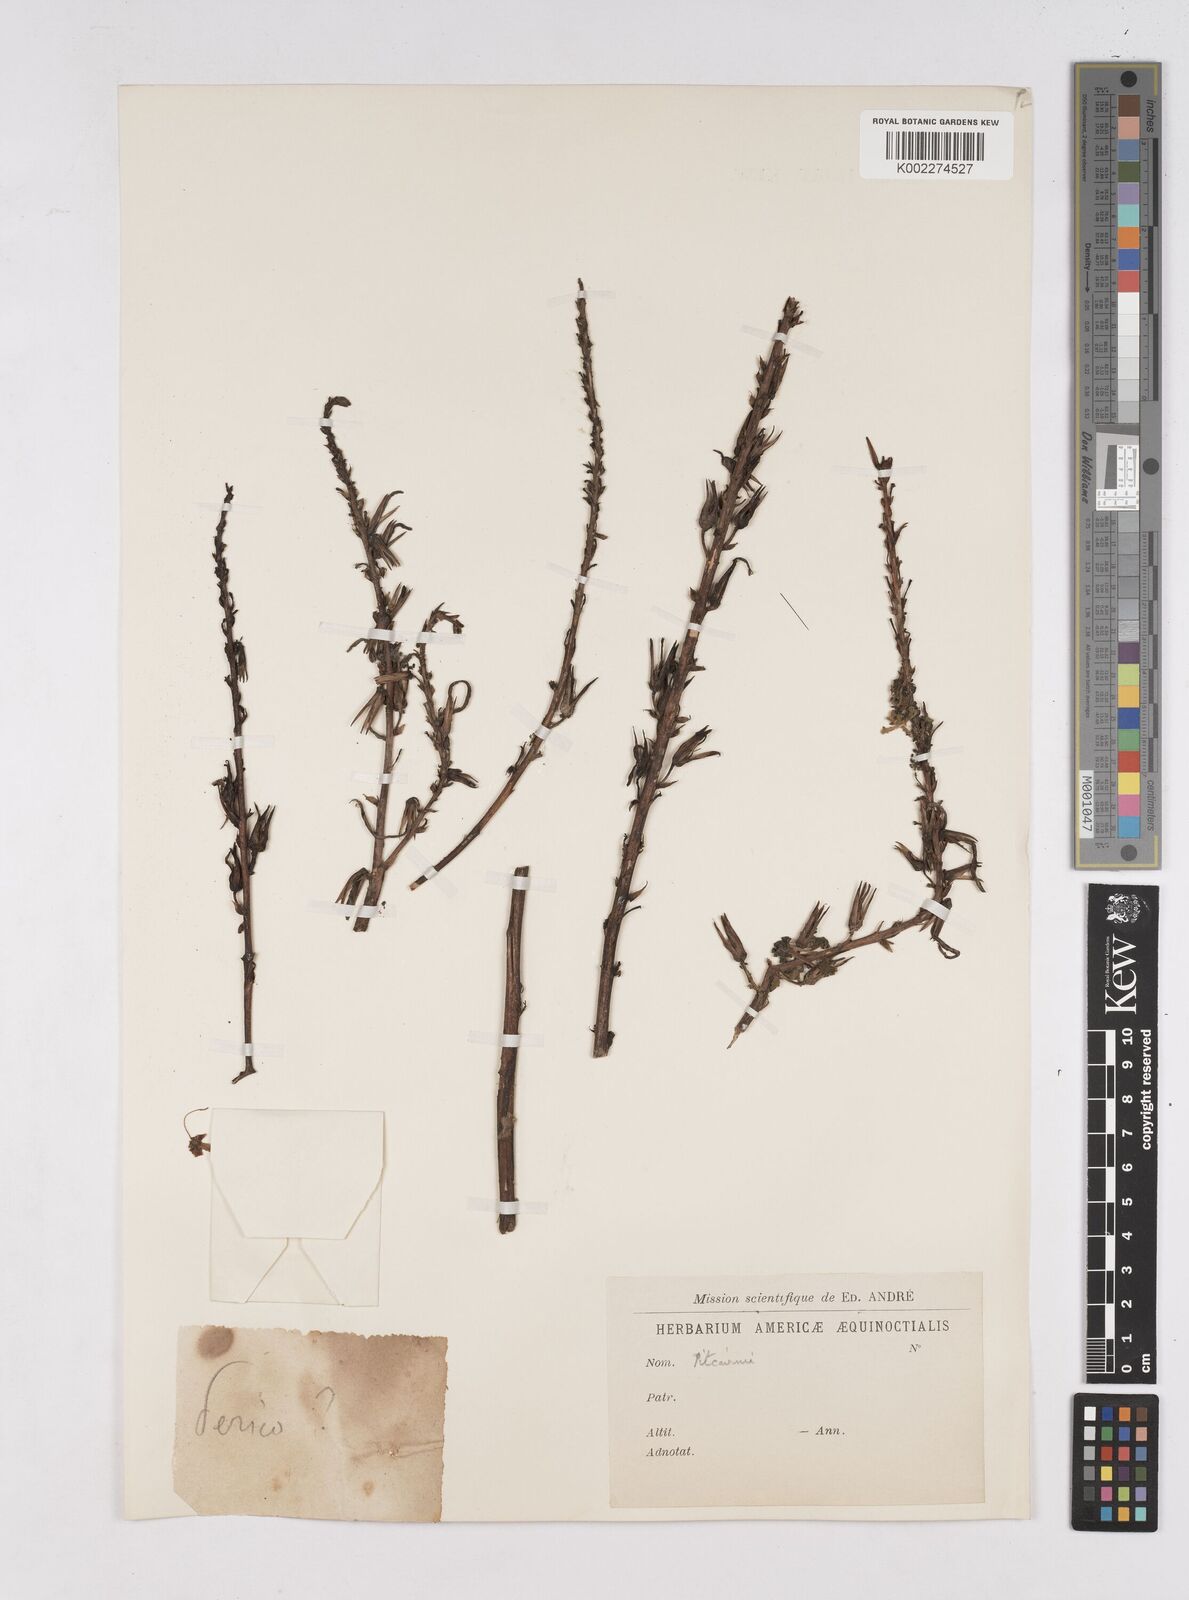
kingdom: Plantae
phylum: Tracheophyta
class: Liliopsida
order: Poales
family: Bromeliaceae
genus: Pitcairnia
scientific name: Pitcairnia
